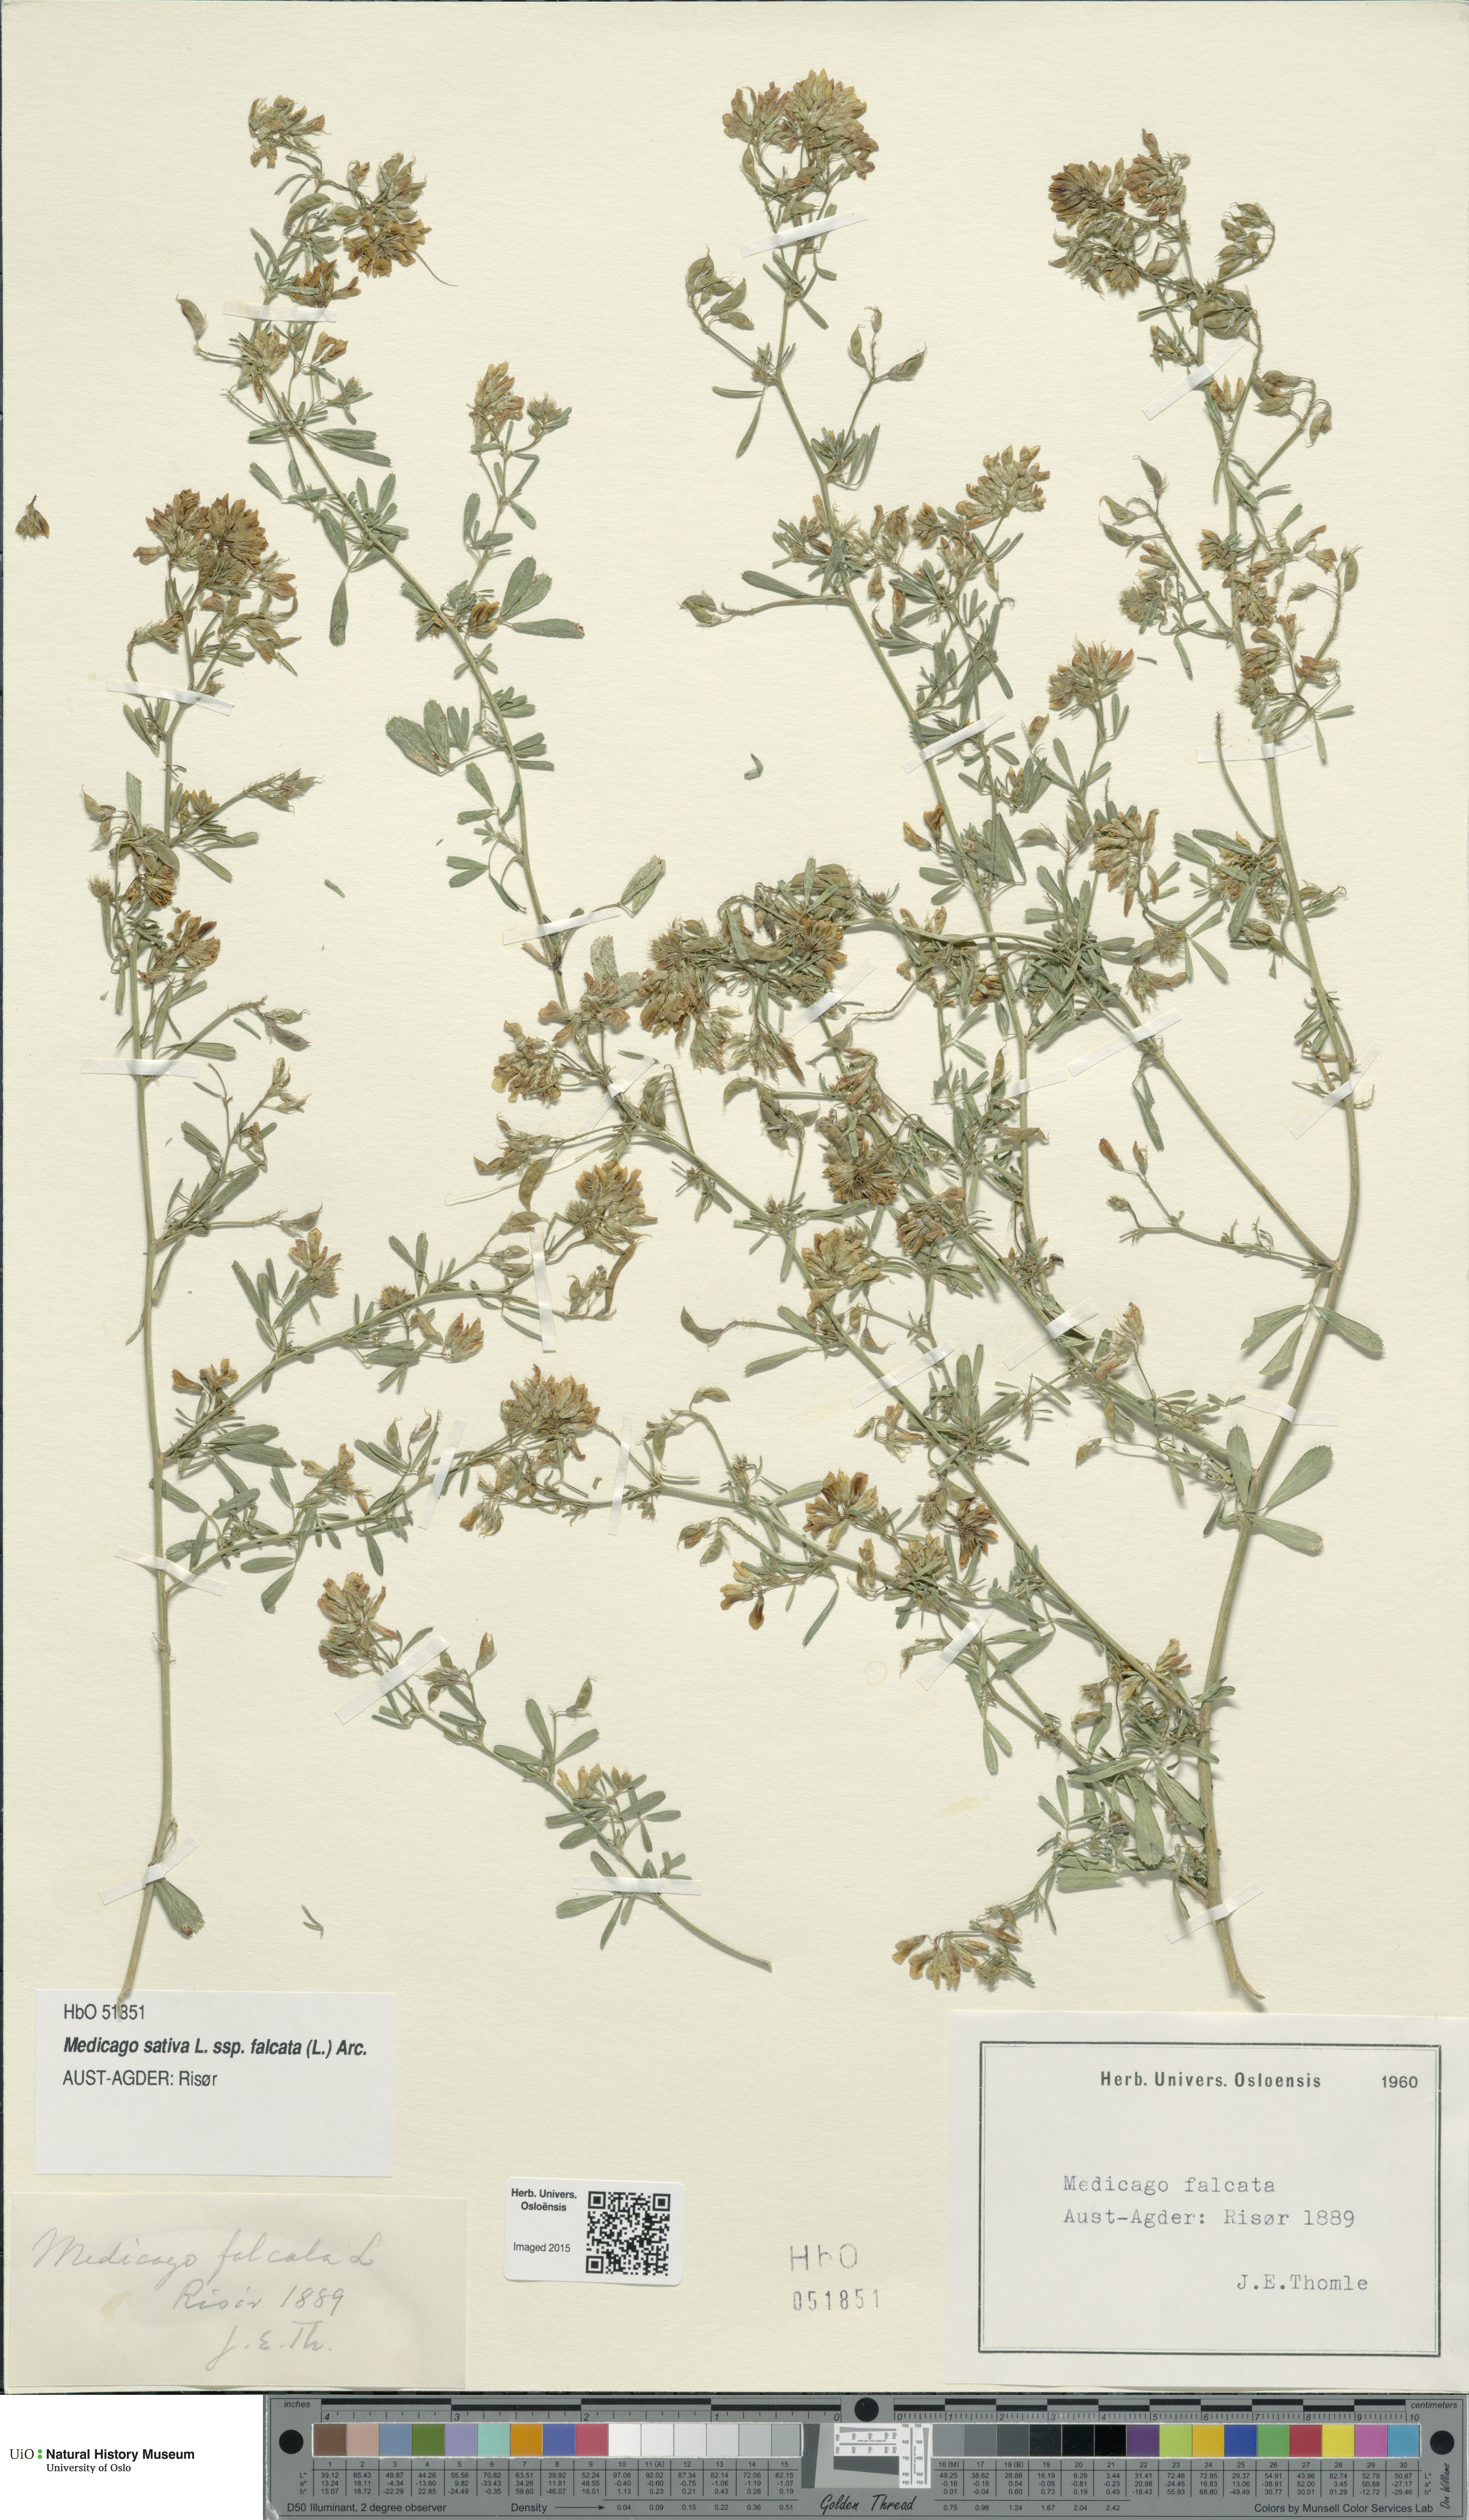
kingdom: Plantae
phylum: Tracheophyta
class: Magnoliopsida
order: Fabales
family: Fabaceae
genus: Medicago
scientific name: Medicago falcata
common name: Sickle medick
